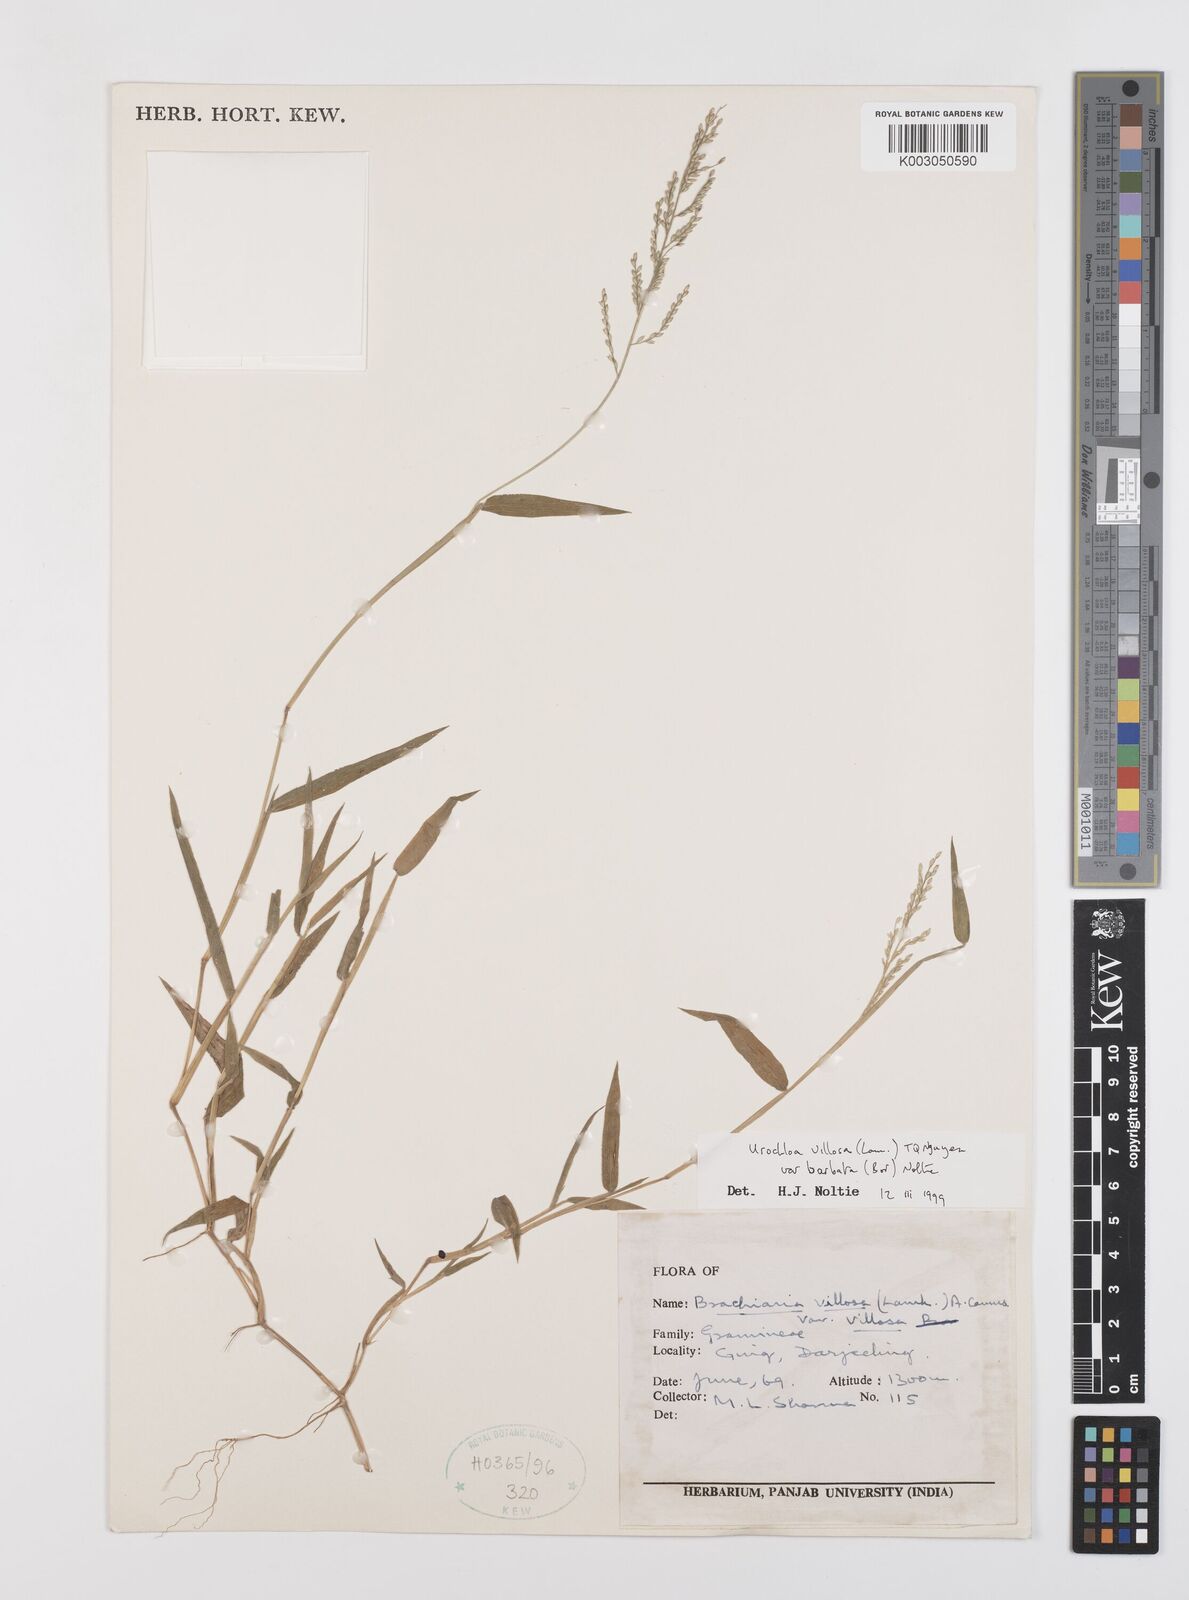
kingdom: Plantae
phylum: Tracheophyta
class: Liliopsida
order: Poales
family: Poaceae
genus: Urochloa
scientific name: Urochloa villosa
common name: Hairy signalgrass
